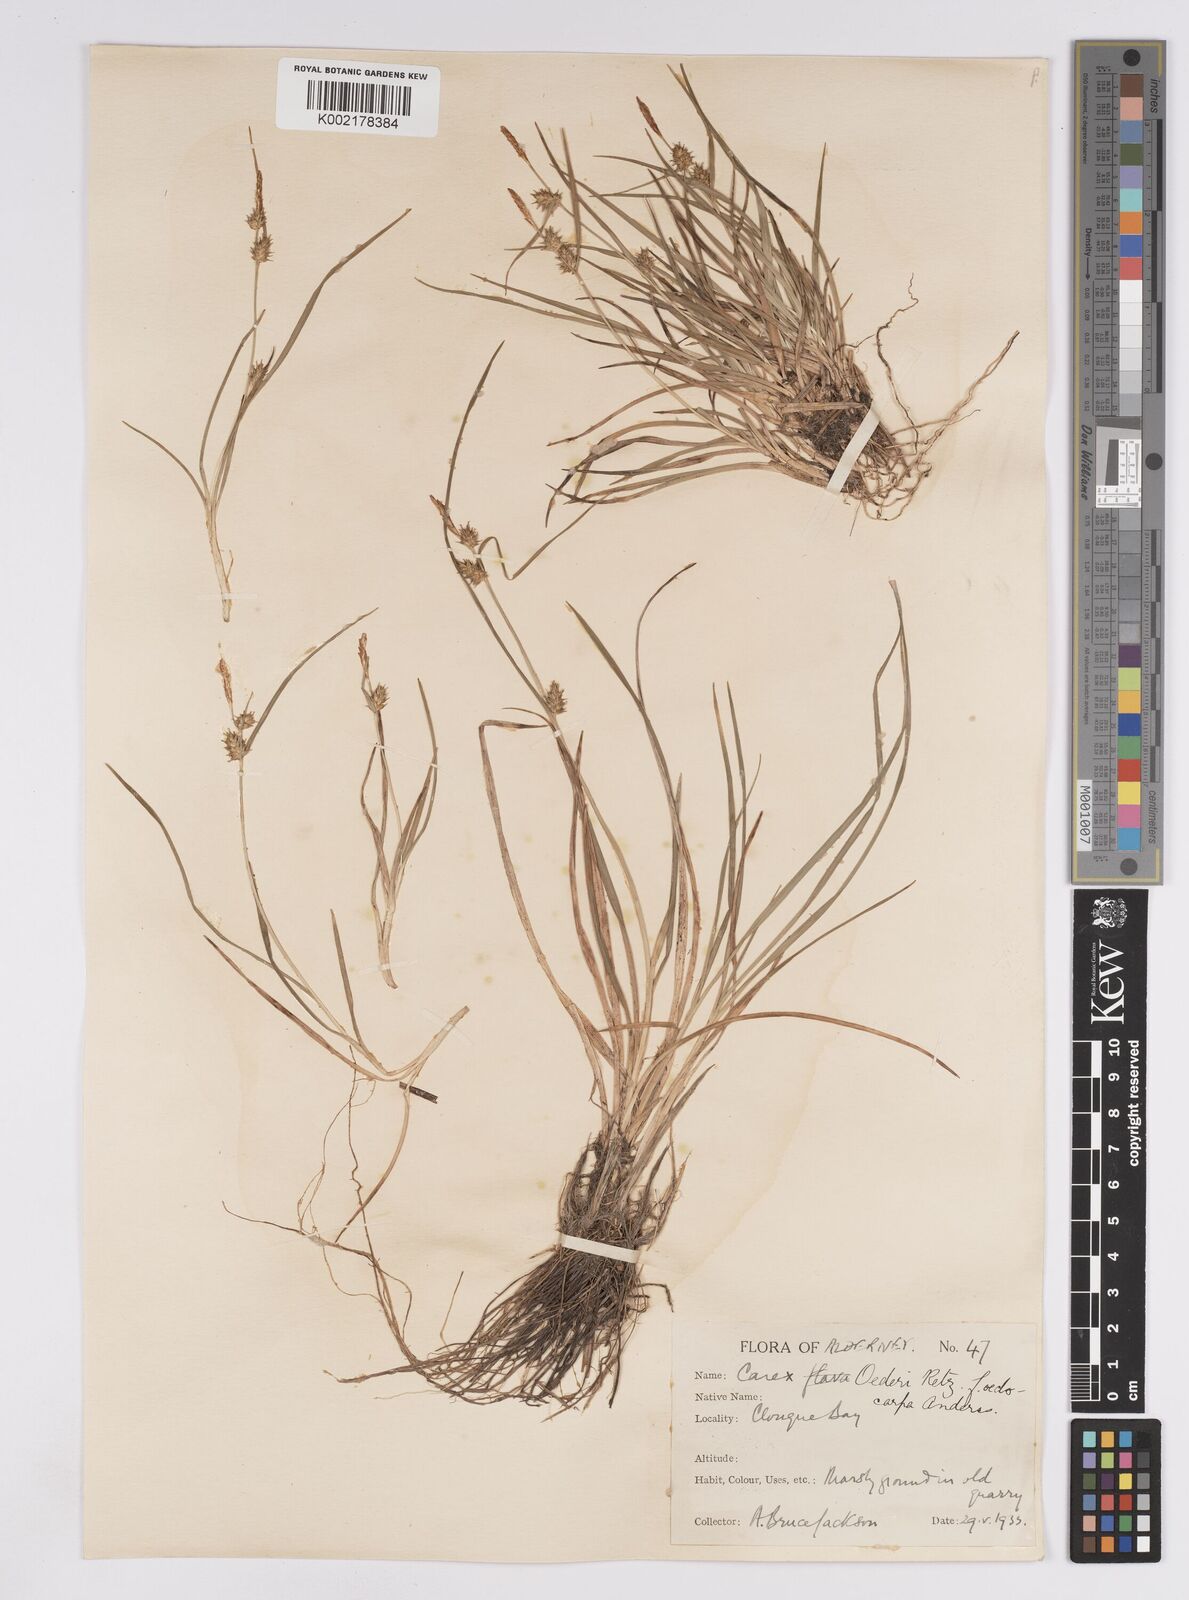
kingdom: Plantae
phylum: Tracheophyta
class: Liliopsida
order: Poales
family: Cyperaceae
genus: Carex
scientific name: Carex demissa
